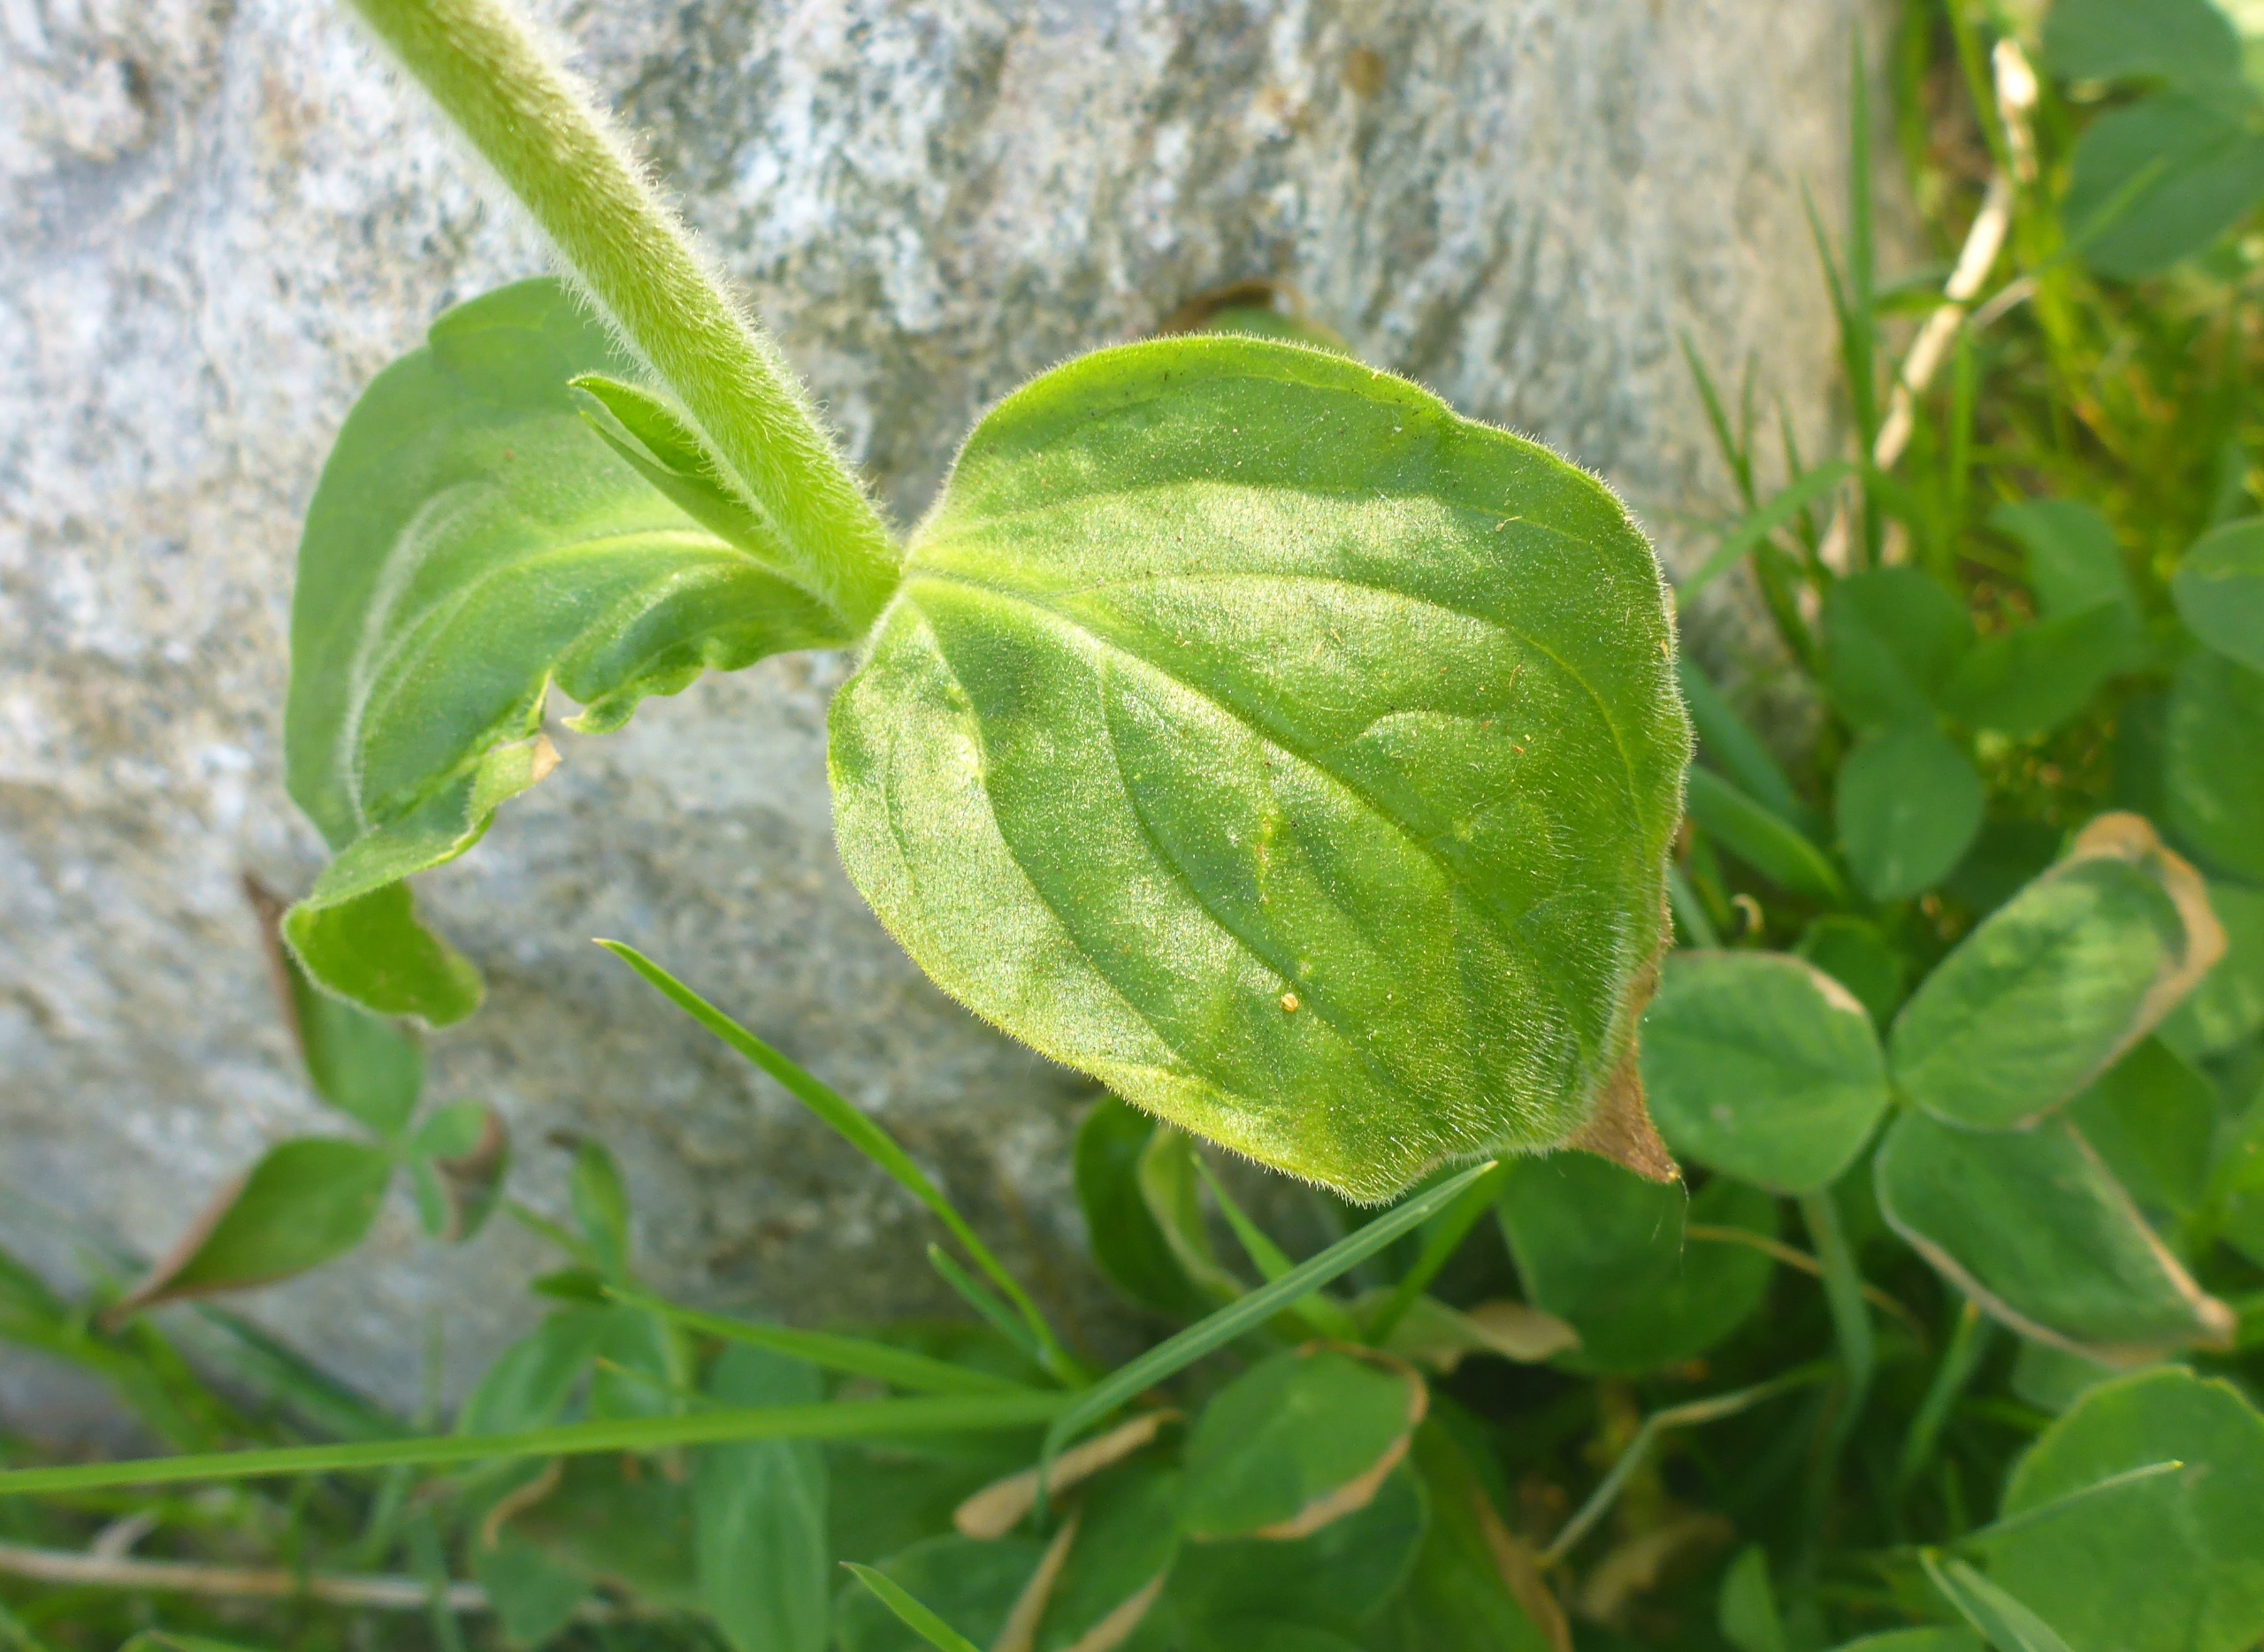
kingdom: Plantae
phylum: Tracheophyta
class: Magnoliopsida
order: Caryophyllales
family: Caryophyllaceae
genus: Silene
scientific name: Silene dioica
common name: Dagpragtstjerne
